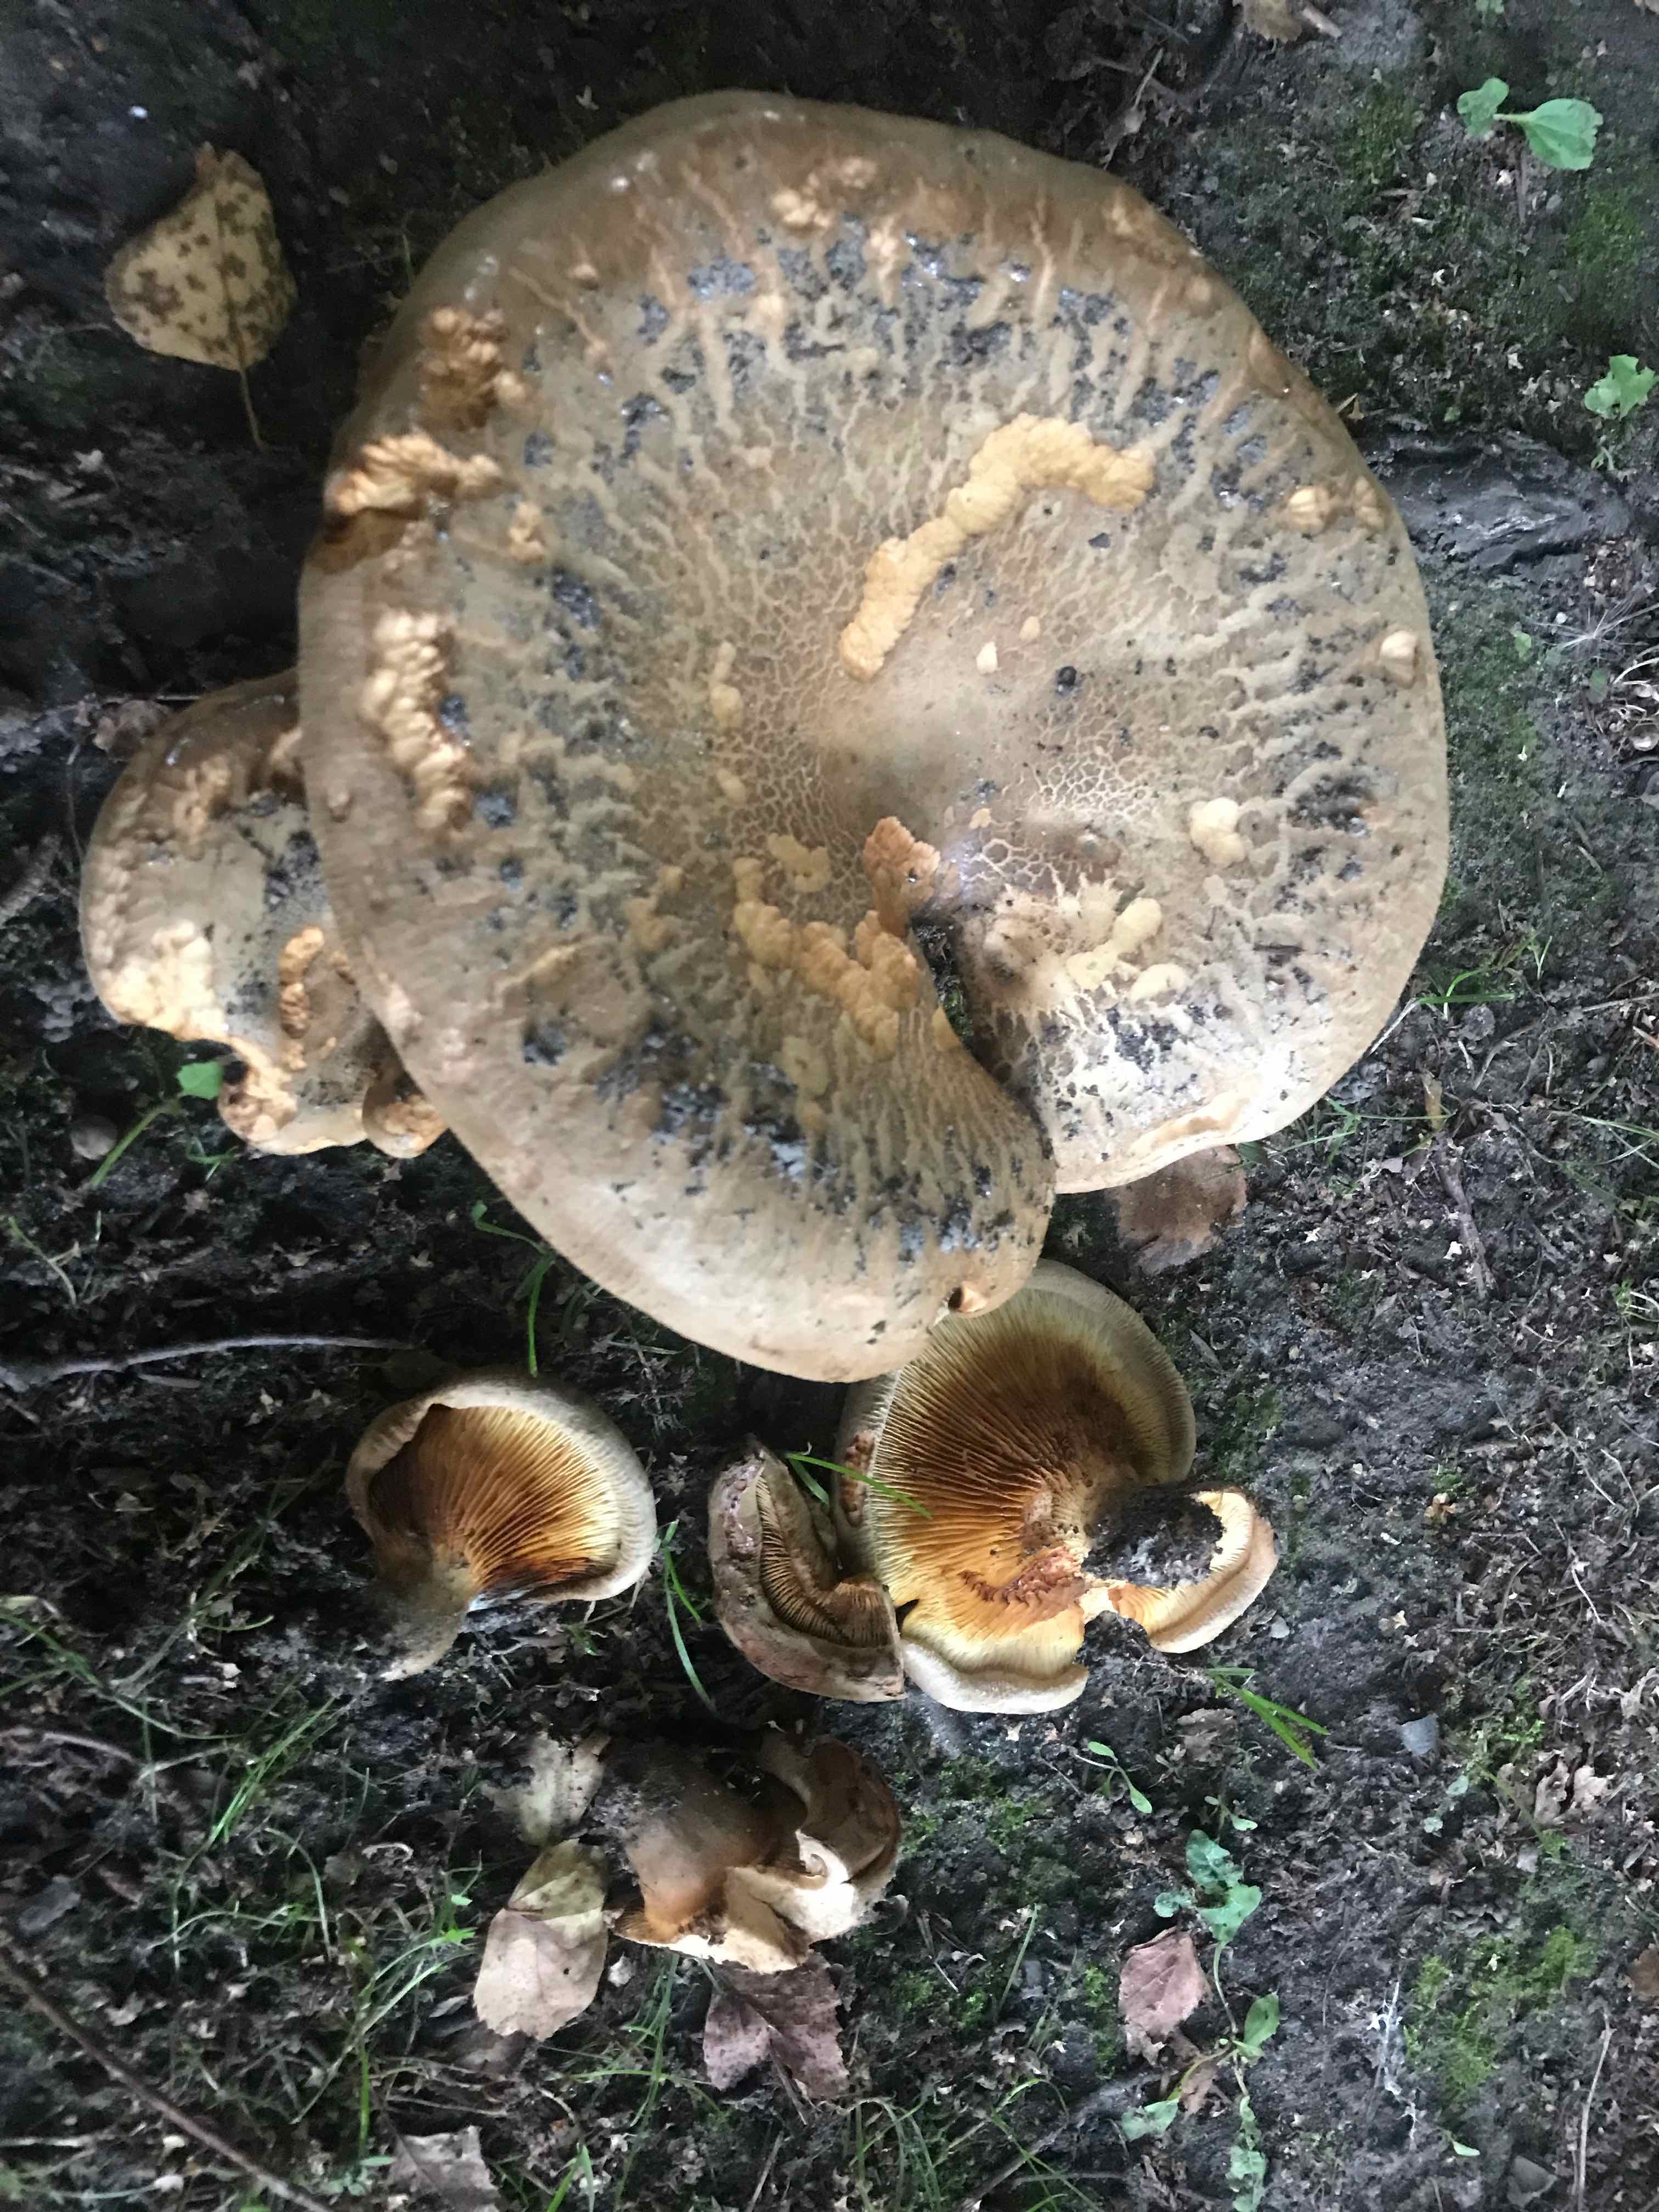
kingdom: Fungi
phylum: Basidiomycota
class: Agaricomycetes
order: Boletales
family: Paxillaceae
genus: Paxillus
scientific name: Paxillus
